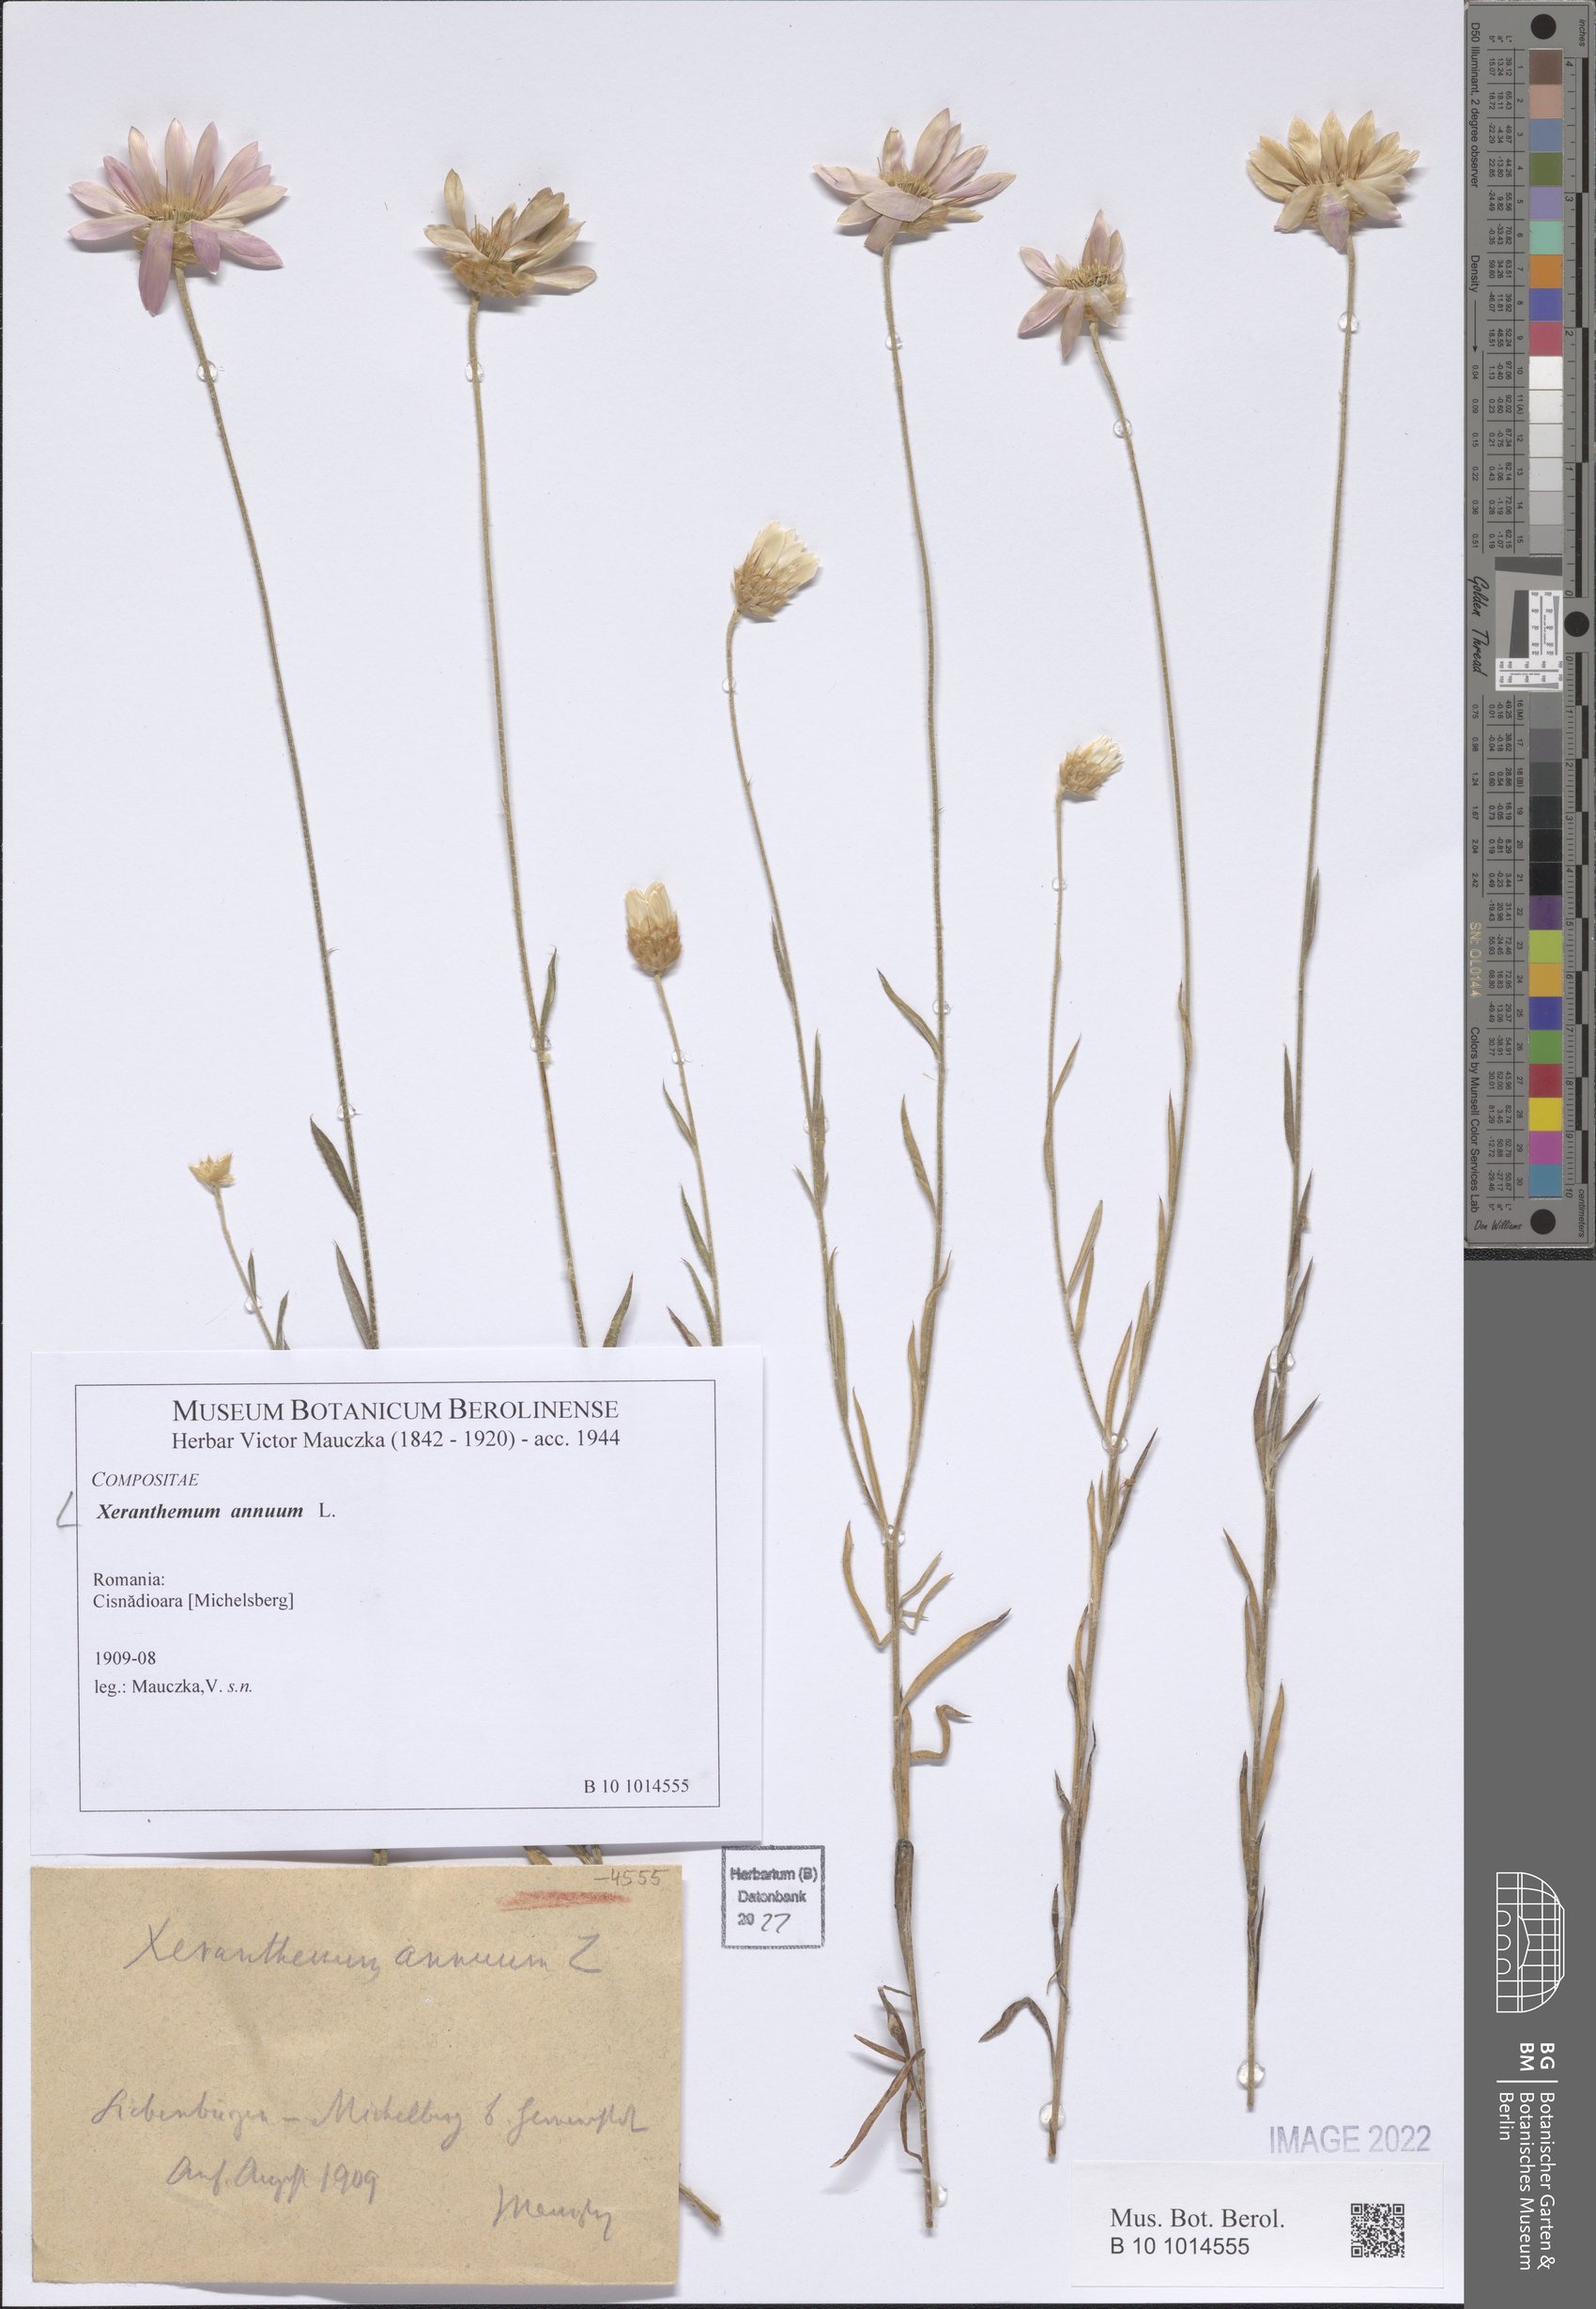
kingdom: Plantae
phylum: Tracheophyta
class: Magnoliopsida
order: Asterales
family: Asteraceae
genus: Xeranthemum
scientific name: Xeranthemum annuum
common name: Immortelle
